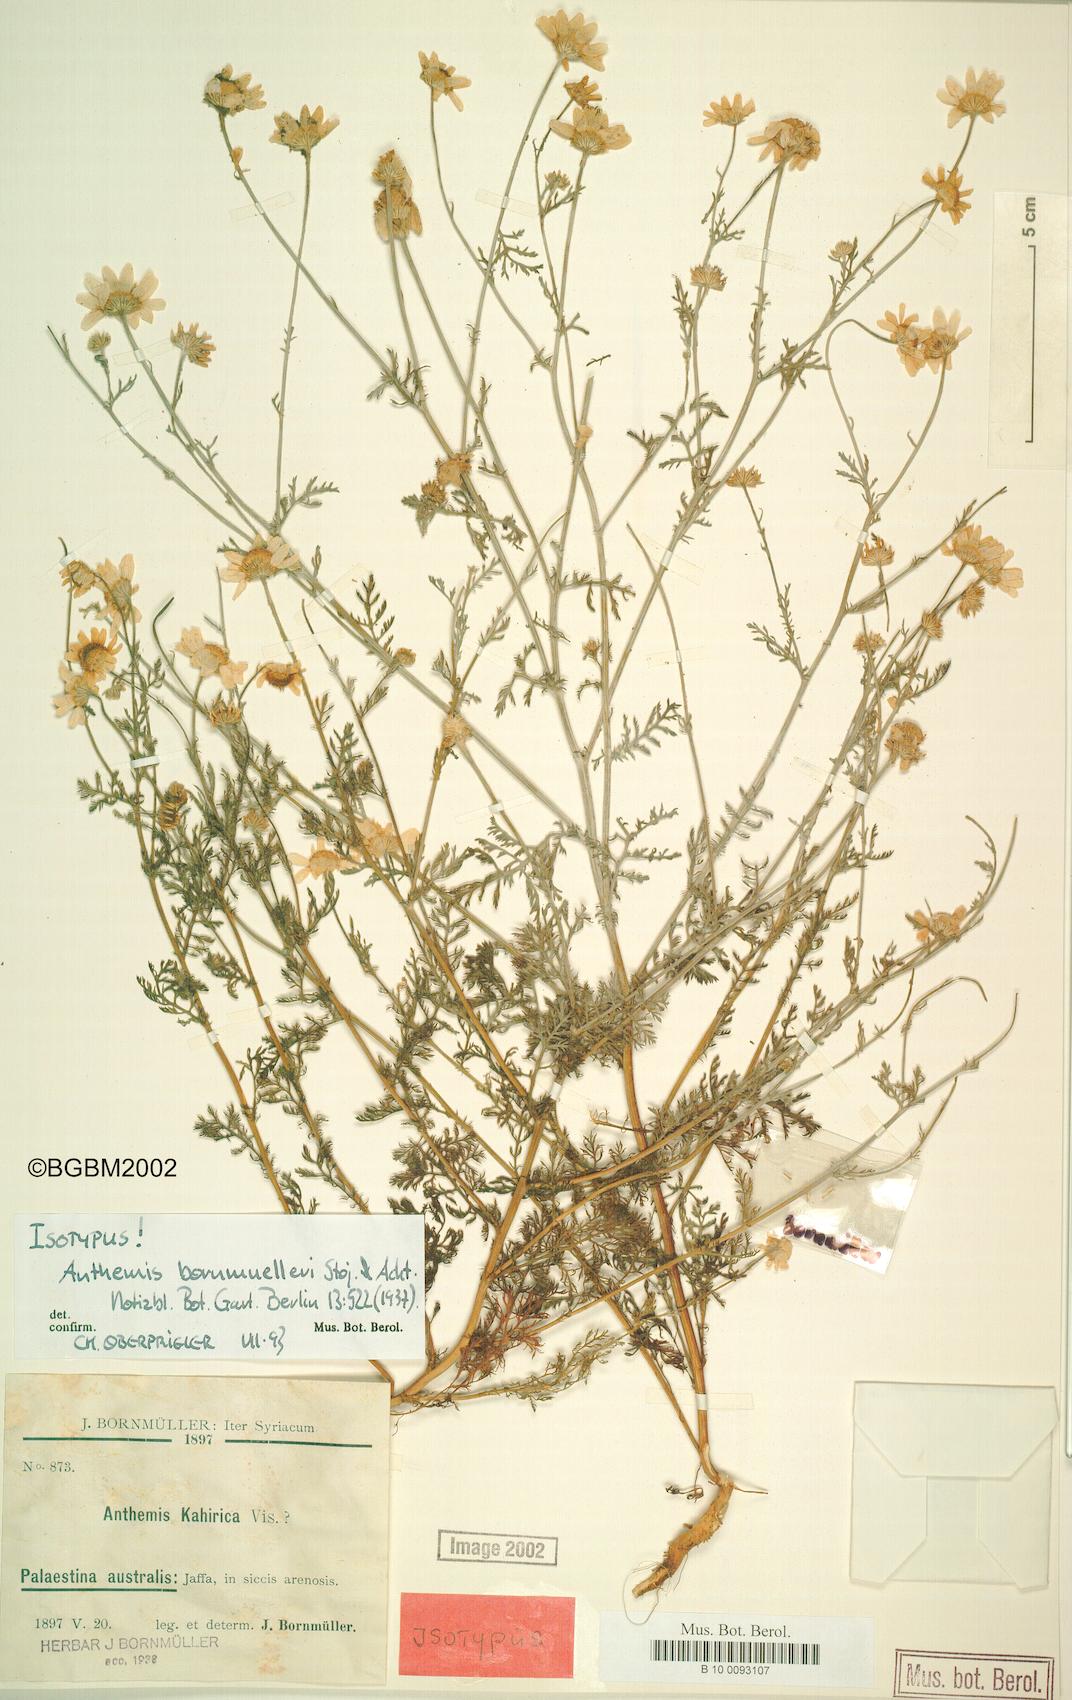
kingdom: Plantae
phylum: Tracheophyta
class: Magnoliopsida
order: Asterales
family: Asteraceae
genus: Anthemis
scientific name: Anthemis bornmuelleri
